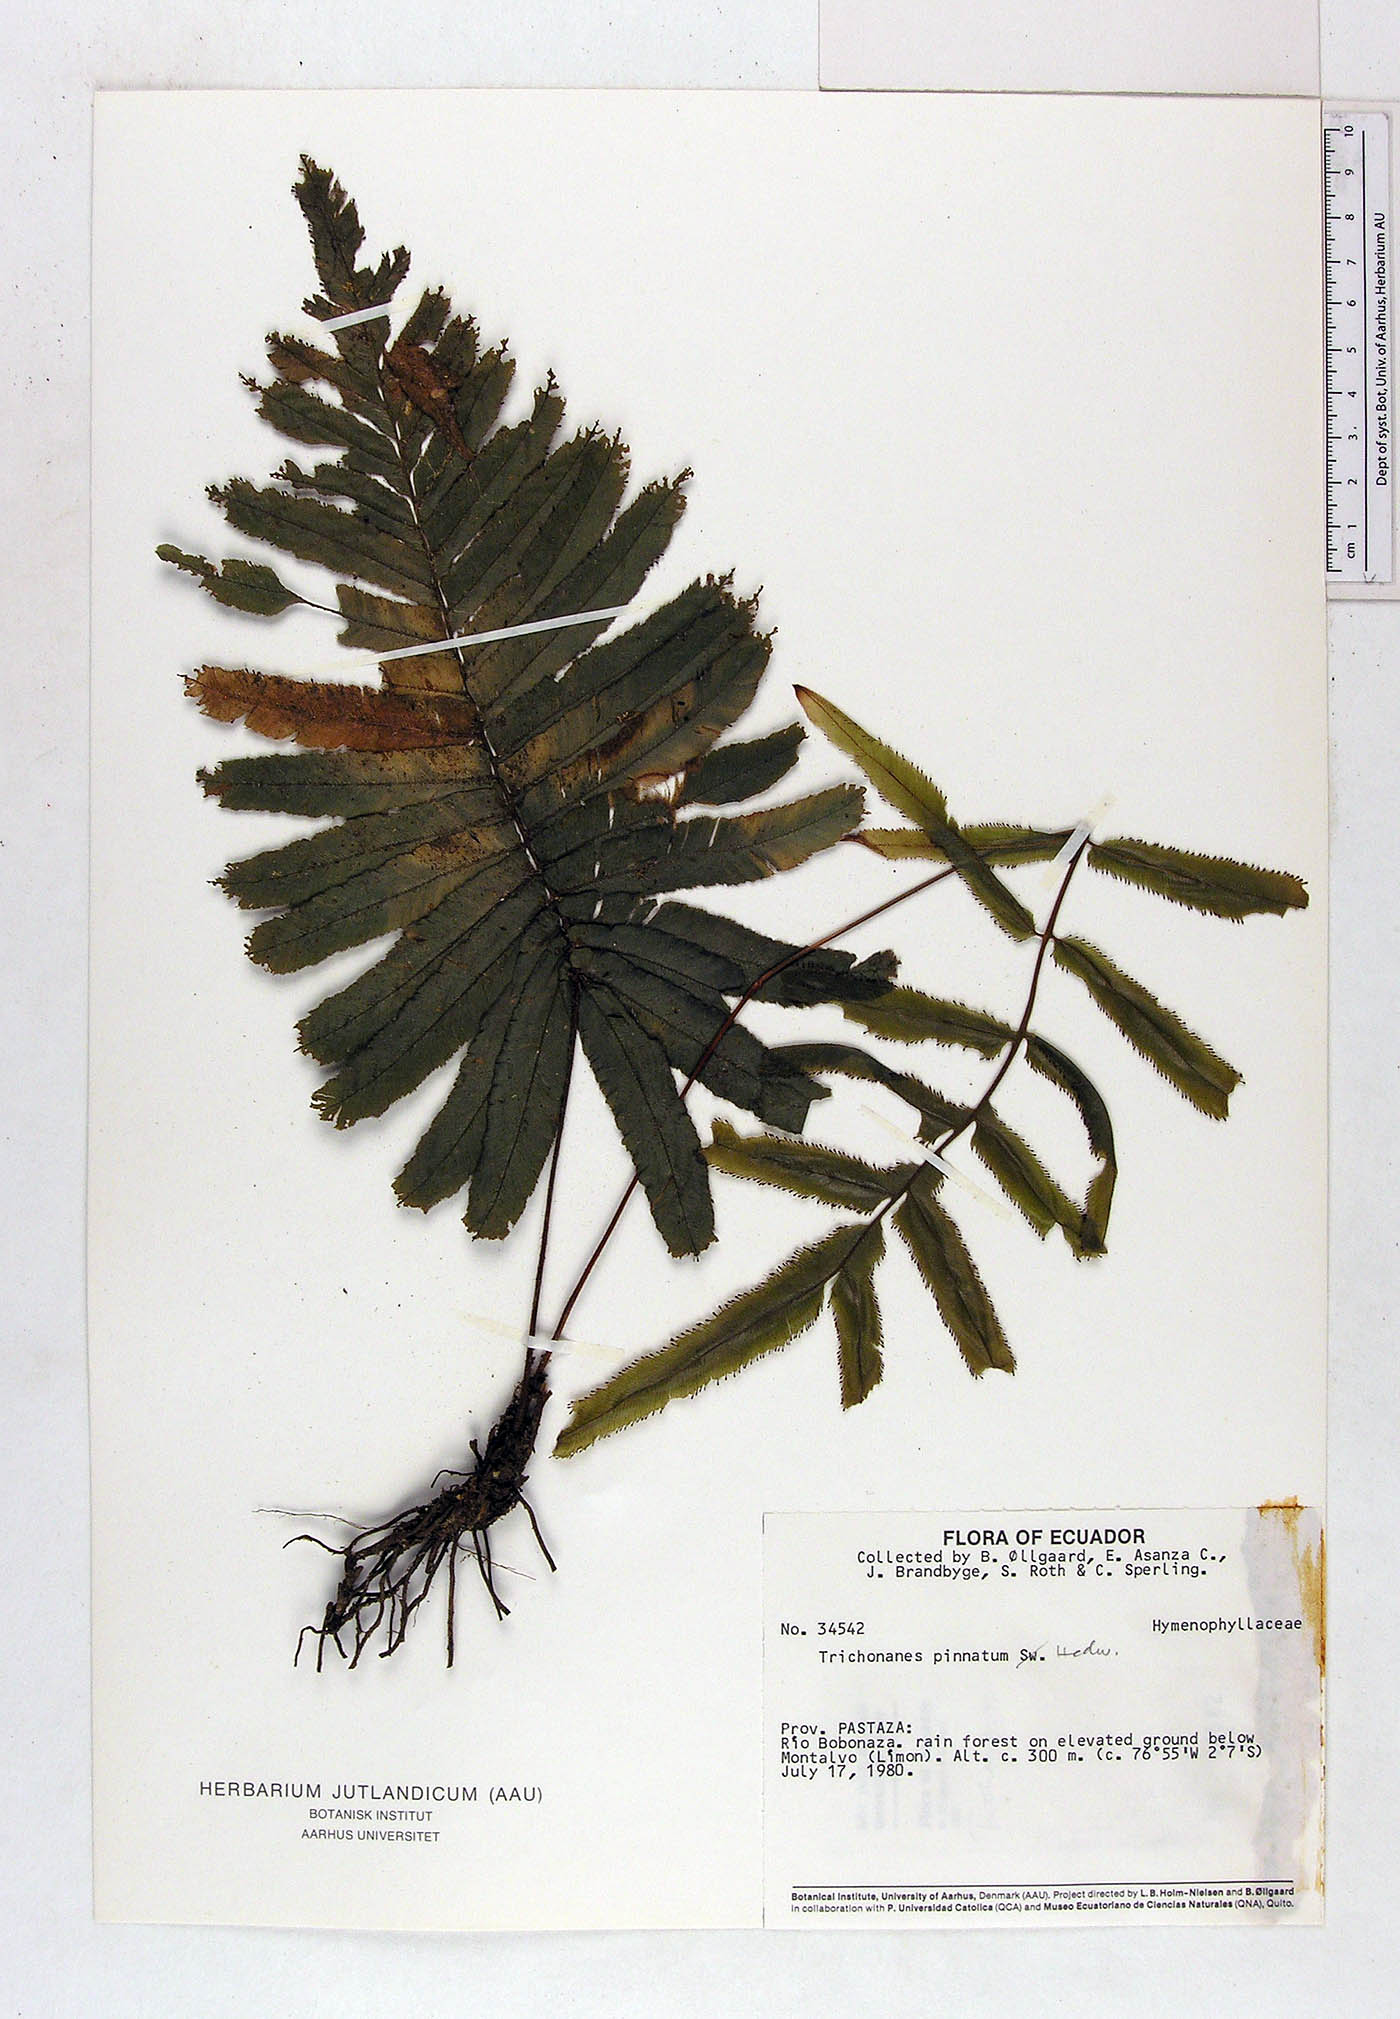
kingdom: Plantae
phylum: Tracheophyta
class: Polypodiopsida
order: Hymenophyllales
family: Hymenophyllaceae
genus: Trichomanes
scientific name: Trichomanes pinnatum
